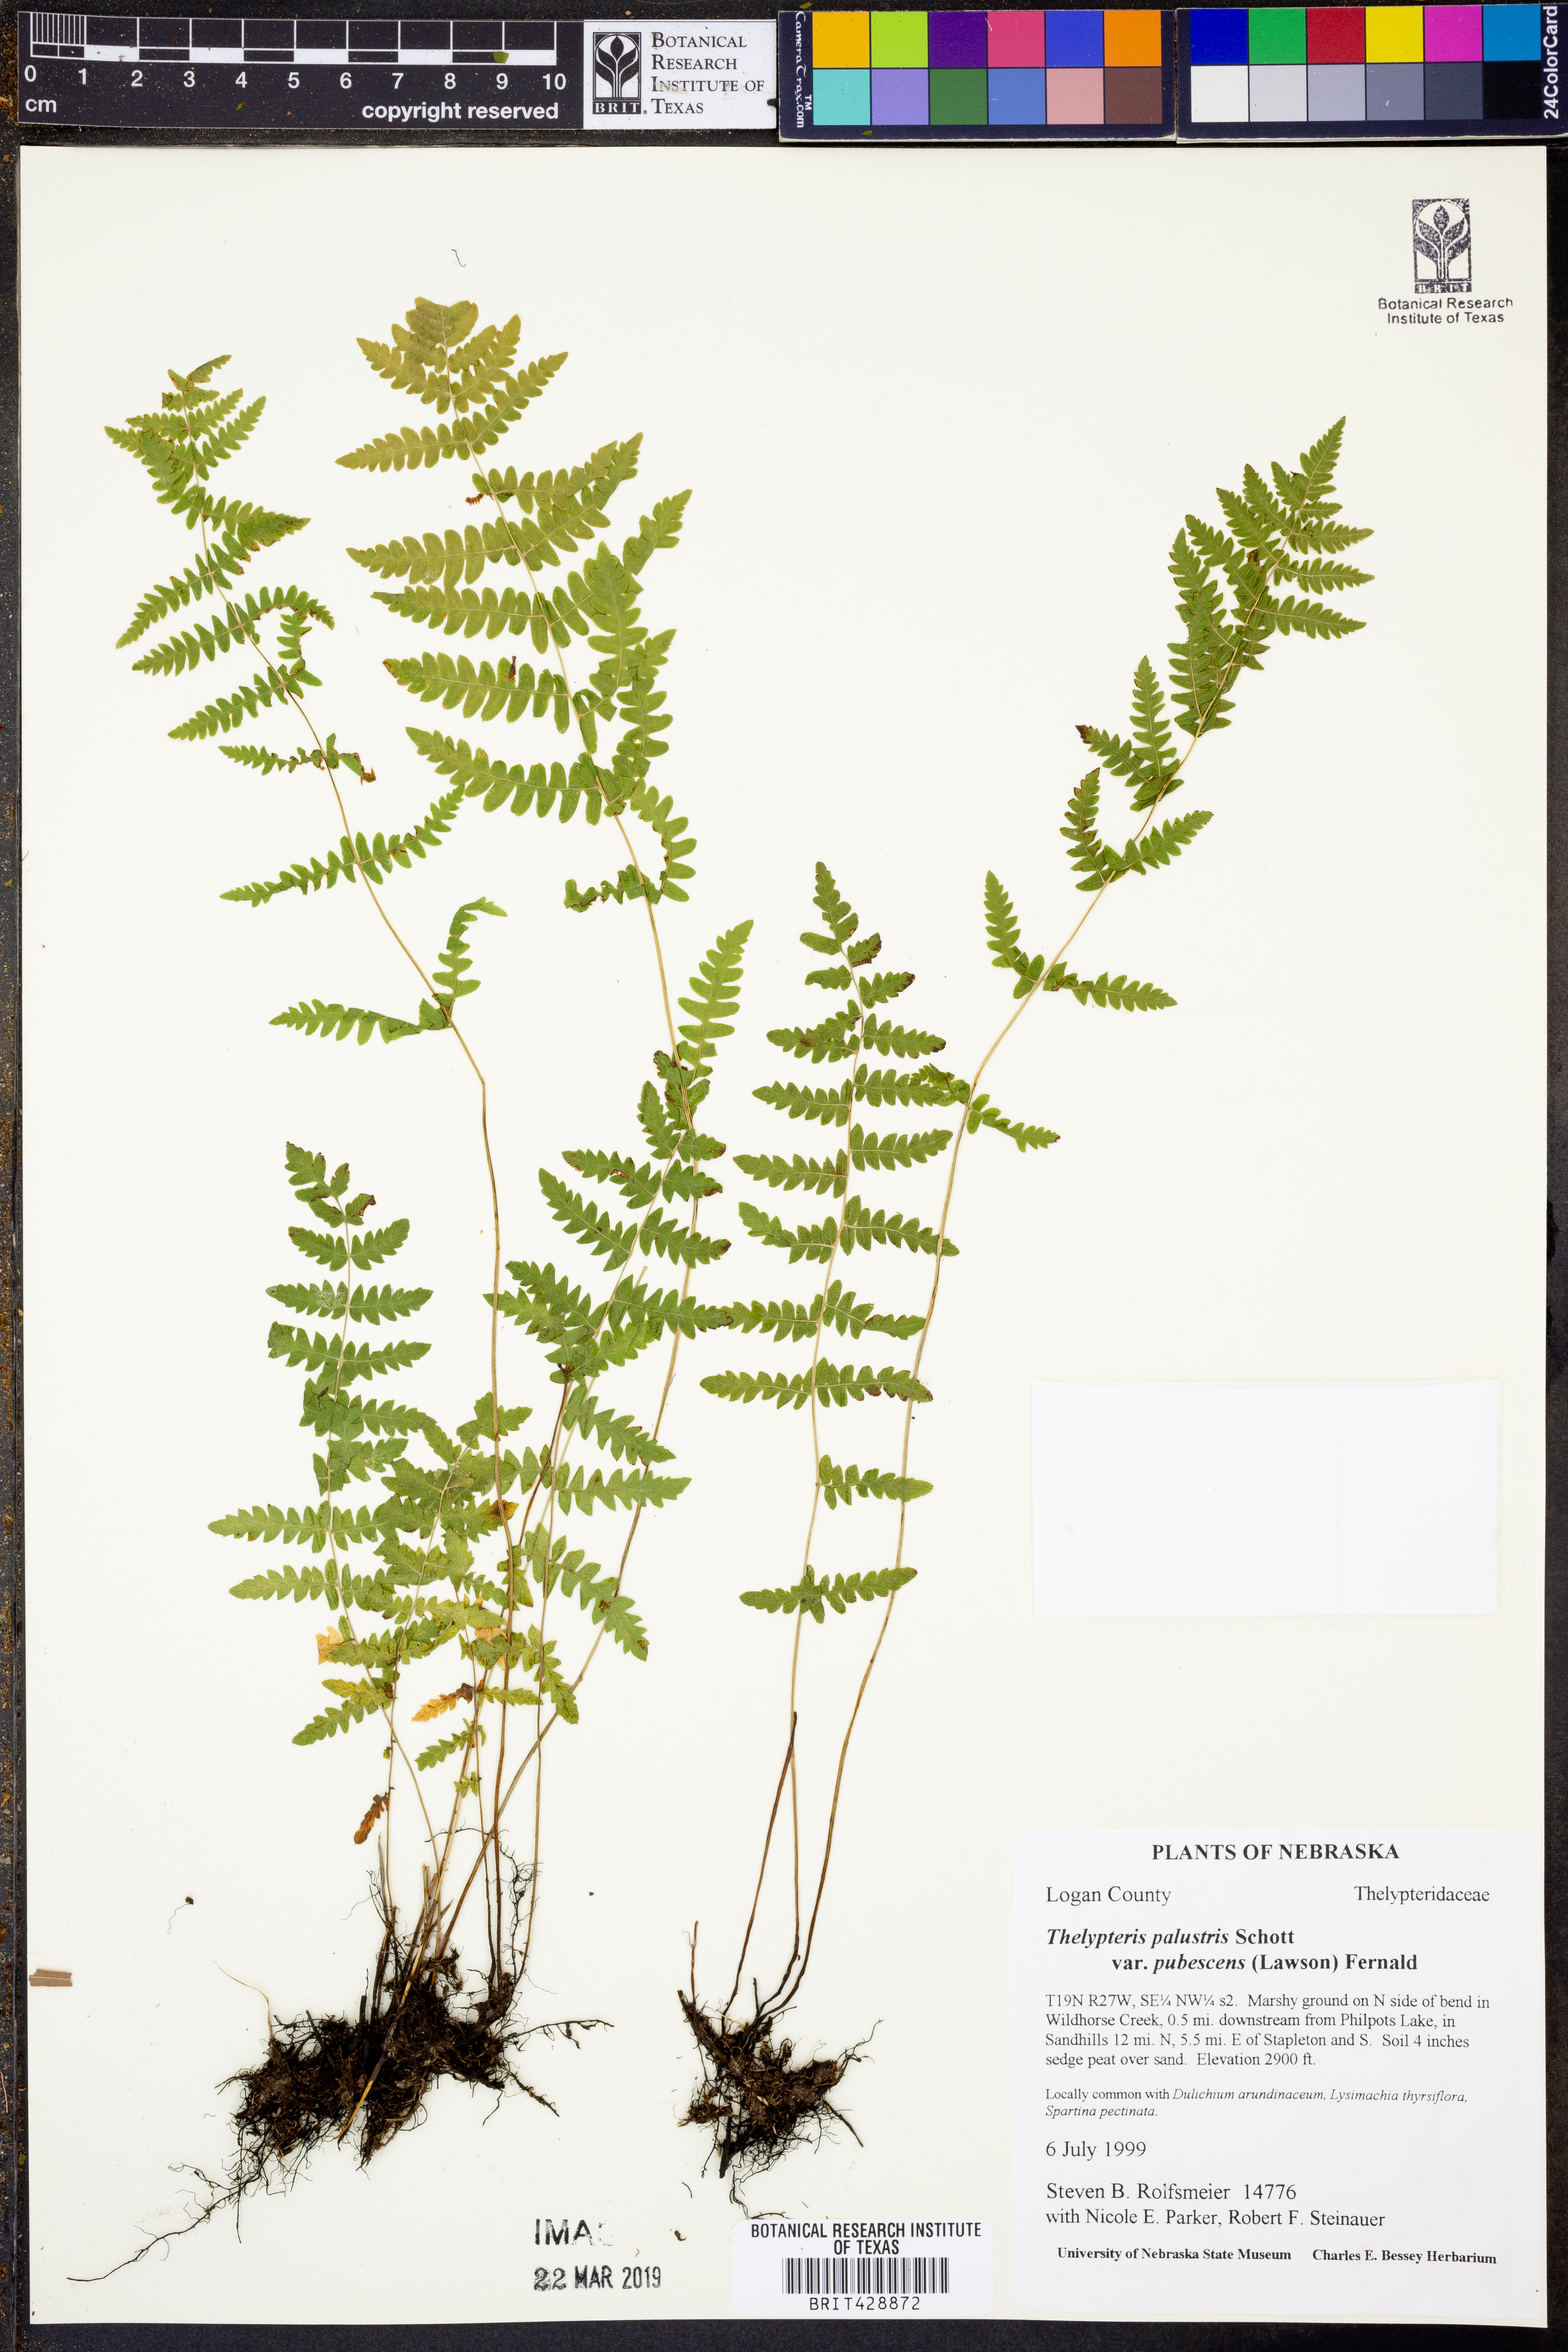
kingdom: Plantae
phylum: Tracheophyta
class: Polypodiopsida
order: Polypodiales
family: Thelypteridaceae
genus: Thelypteris
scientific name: Thelypteris palustris
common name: Marsh fern
